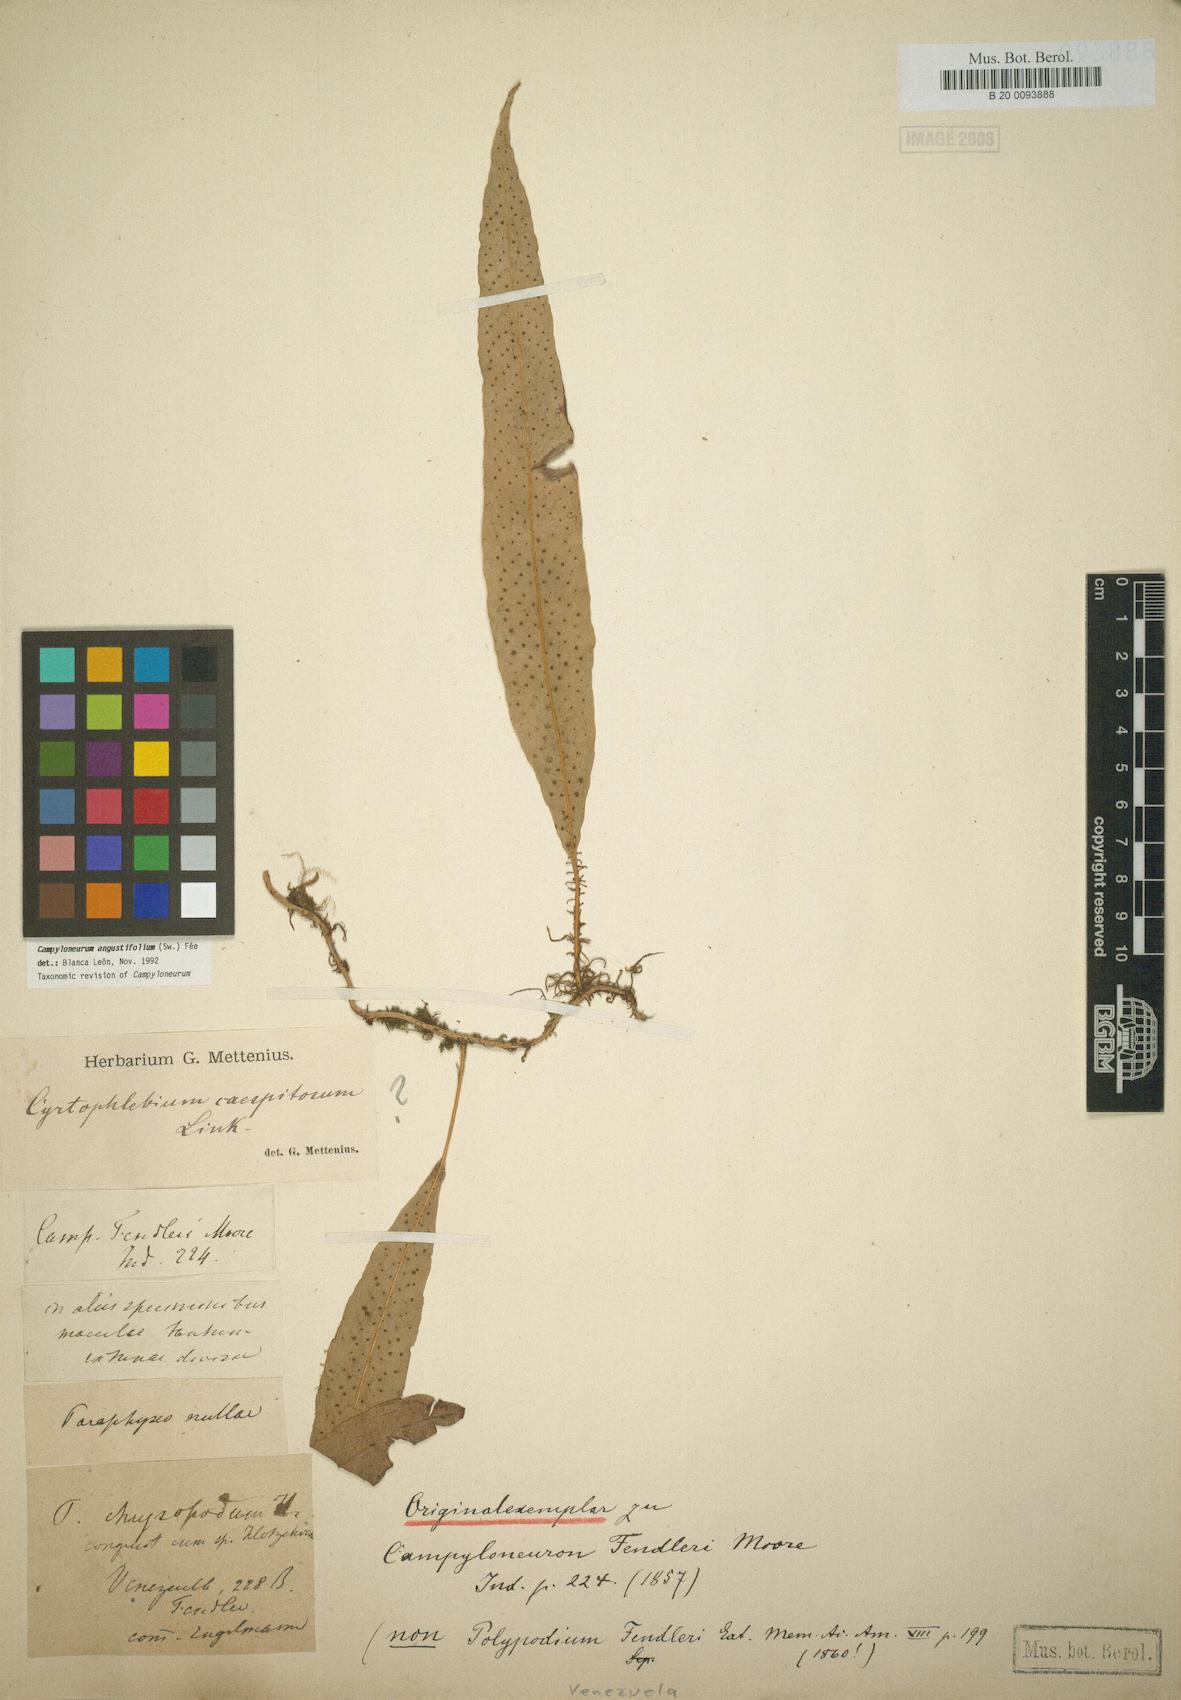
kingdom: Plantae
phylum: Tracheophyta
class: Polypodiopsida
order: Polypodiales
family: Polypodiaceae
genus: Campyloneurum
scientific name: Campyloneurum chrysopodum
